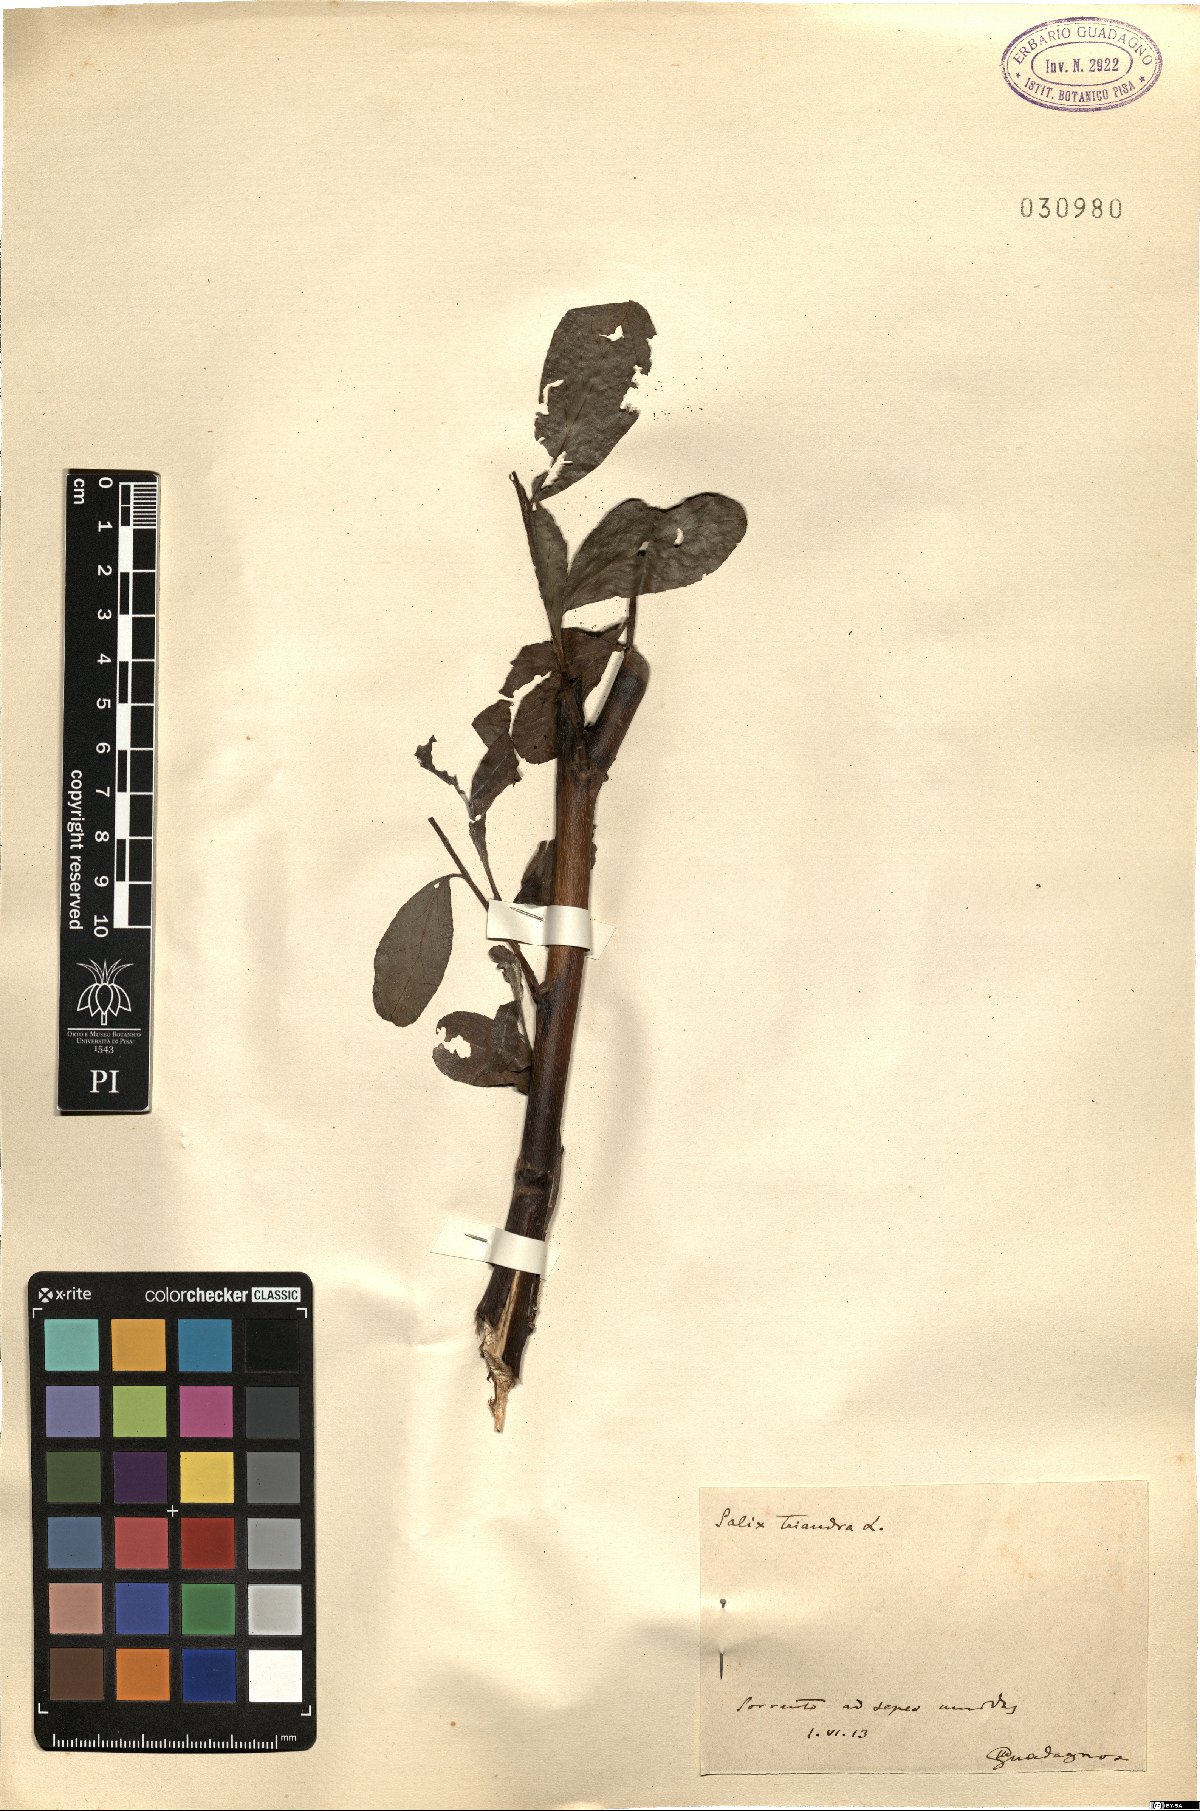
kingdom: Plantae
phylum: Tracheophyta
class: Magnoliopsida
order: Malpighiales
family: Salicaceae
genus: Salix
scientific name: Salix triandra
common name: Almond willow
